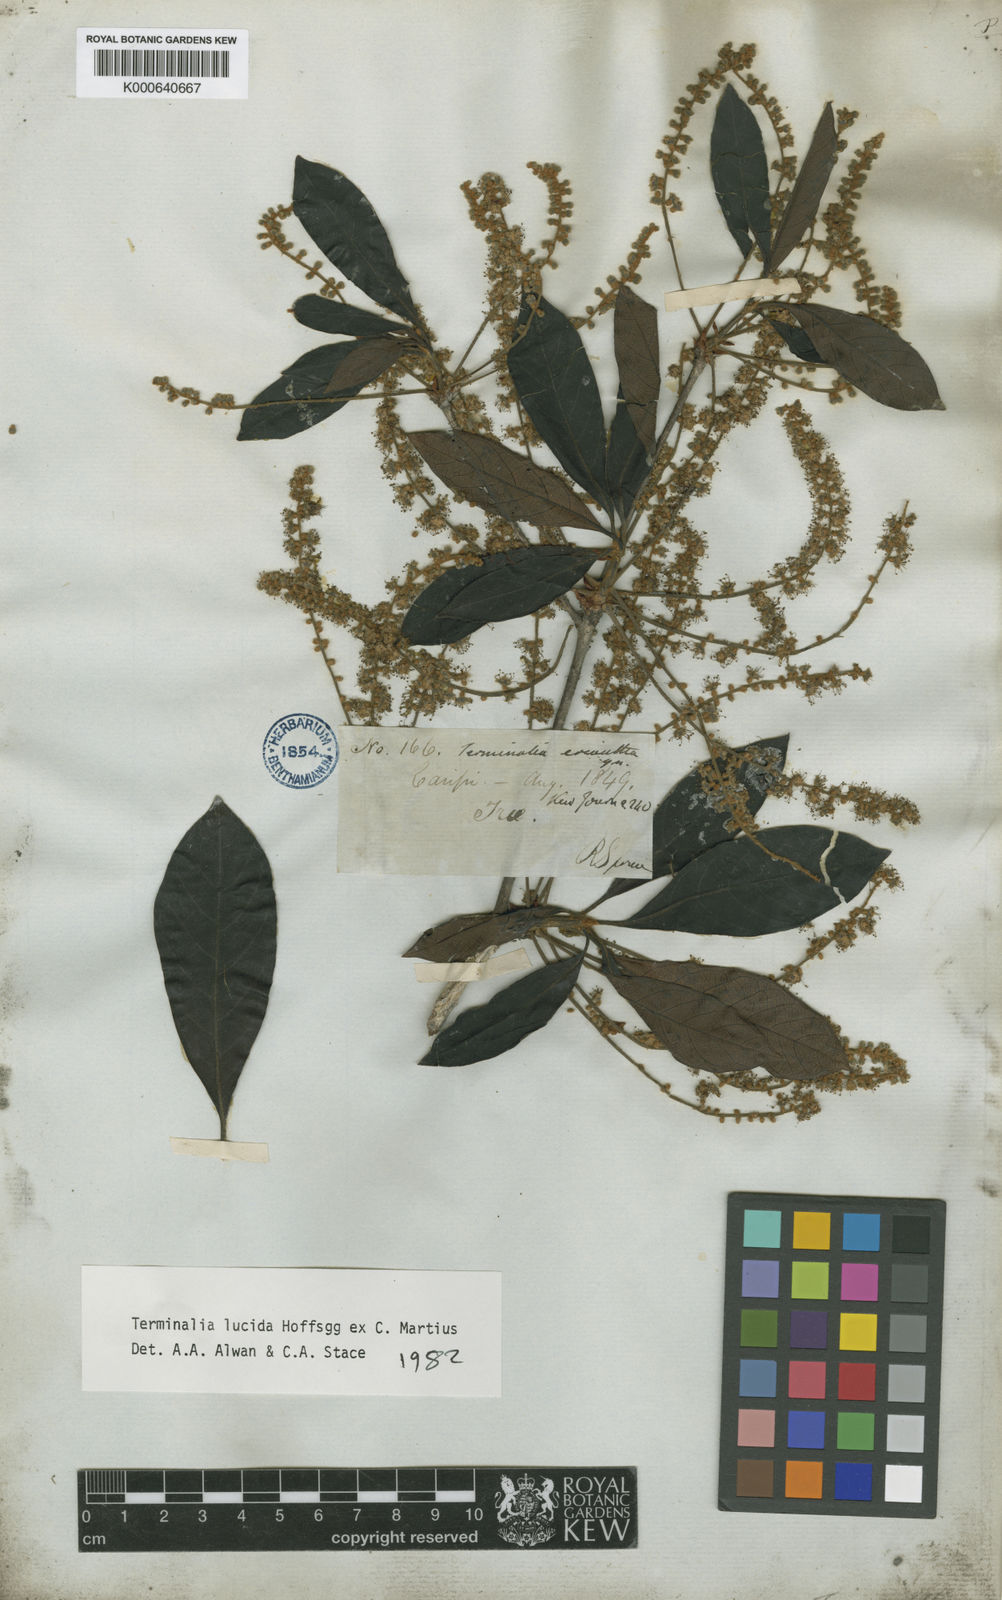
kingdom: Plantae
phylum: Tracheophyta
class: Magnoliopsida
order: Myrtales
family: Combretaceae
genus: Terminalia
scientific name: Terminalia lucida
